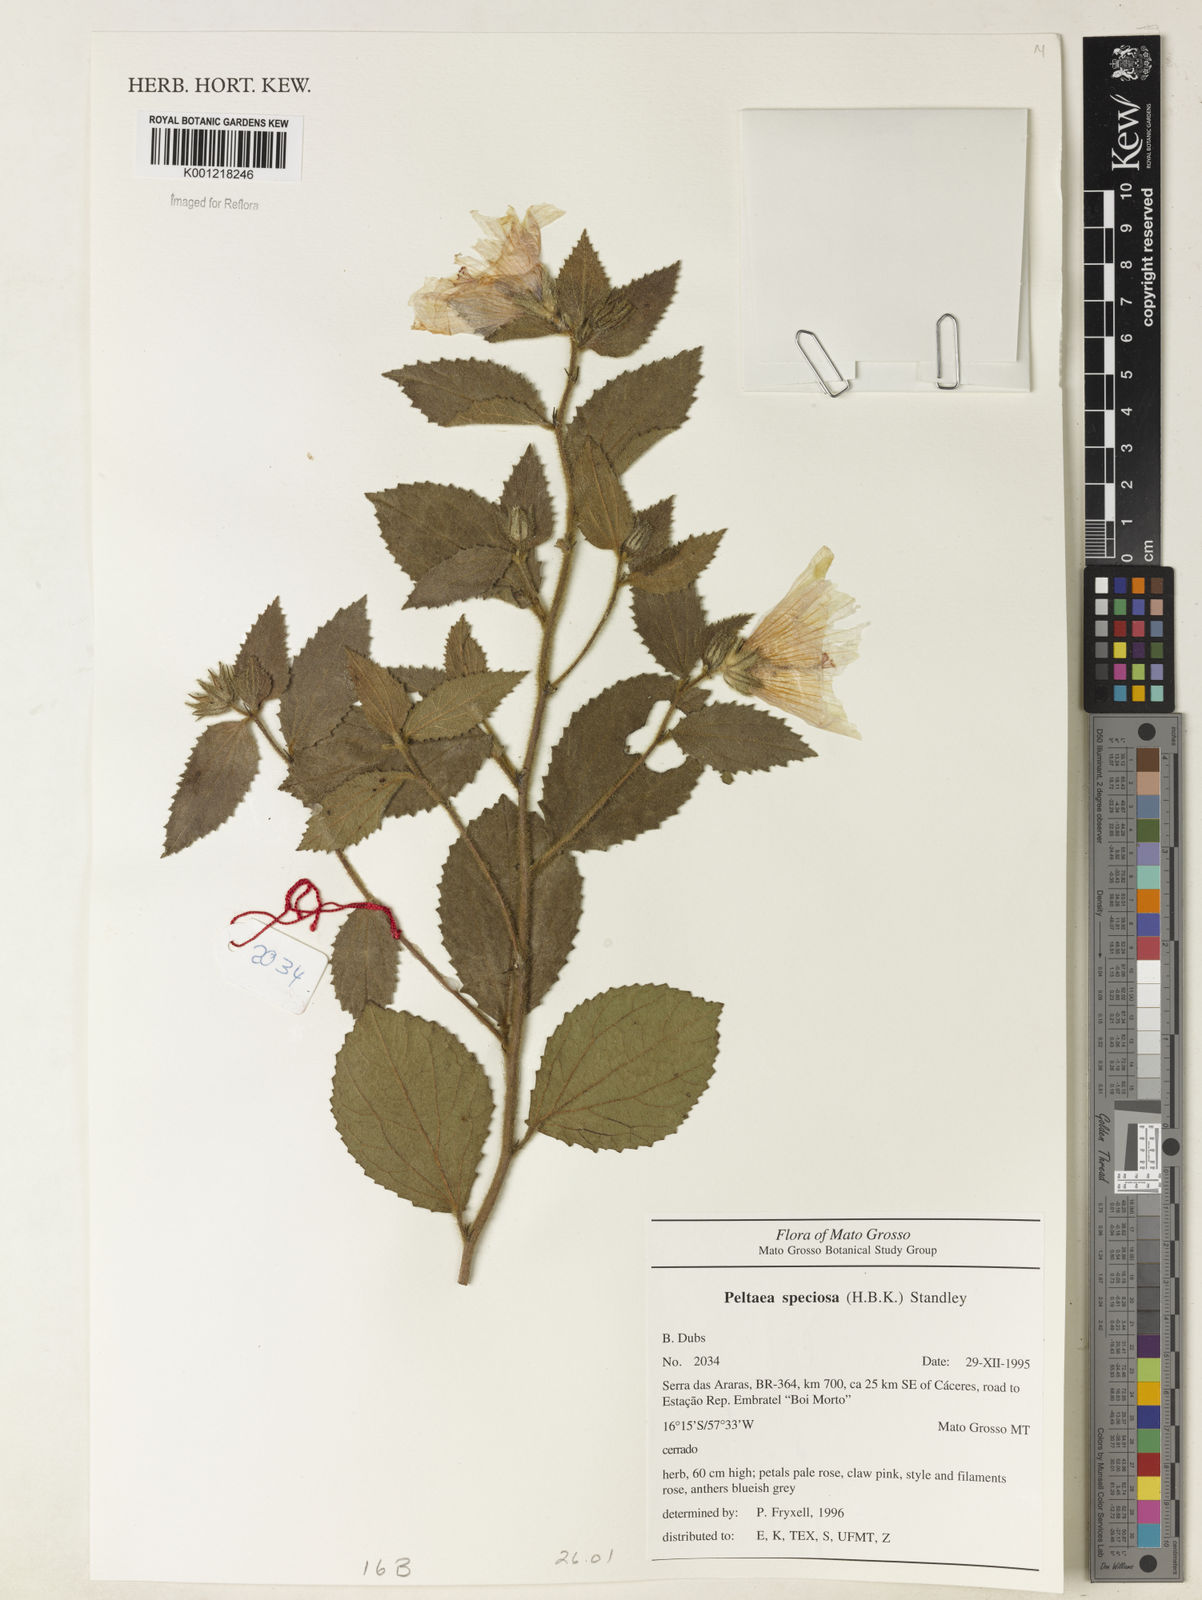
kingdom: Plantae
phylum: Tracheophyta
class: Magnoliopsida
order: Malvales
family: Malvaceae
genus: Peltaea
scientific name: Peltaea speciosa
